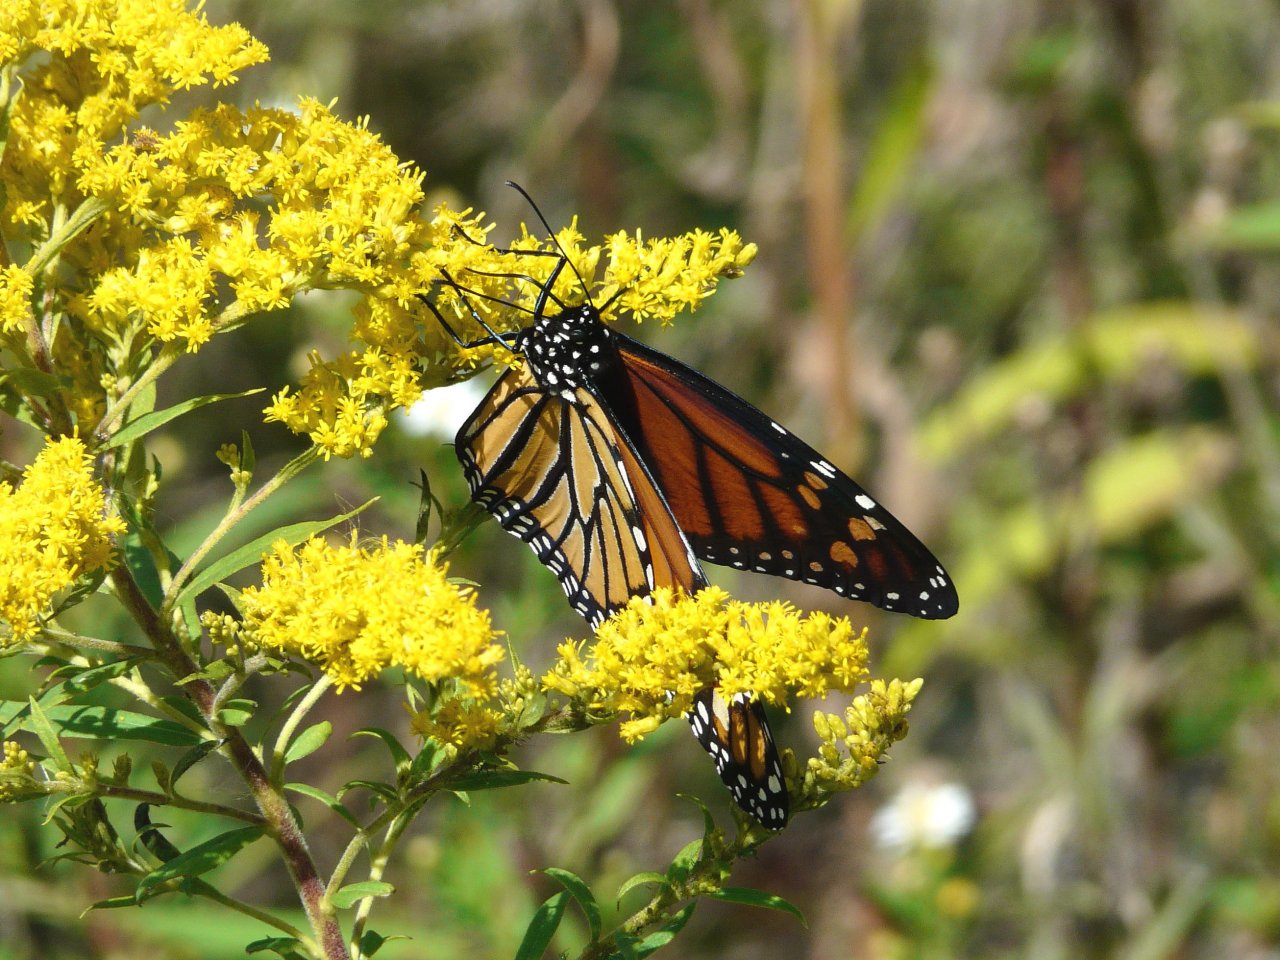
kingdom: Animalia
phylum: Arthropoda
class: Insecta
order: Lepidoptera
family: Nymphalidae
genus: Danaus
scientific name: Danaus plexippus
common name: Monarch
